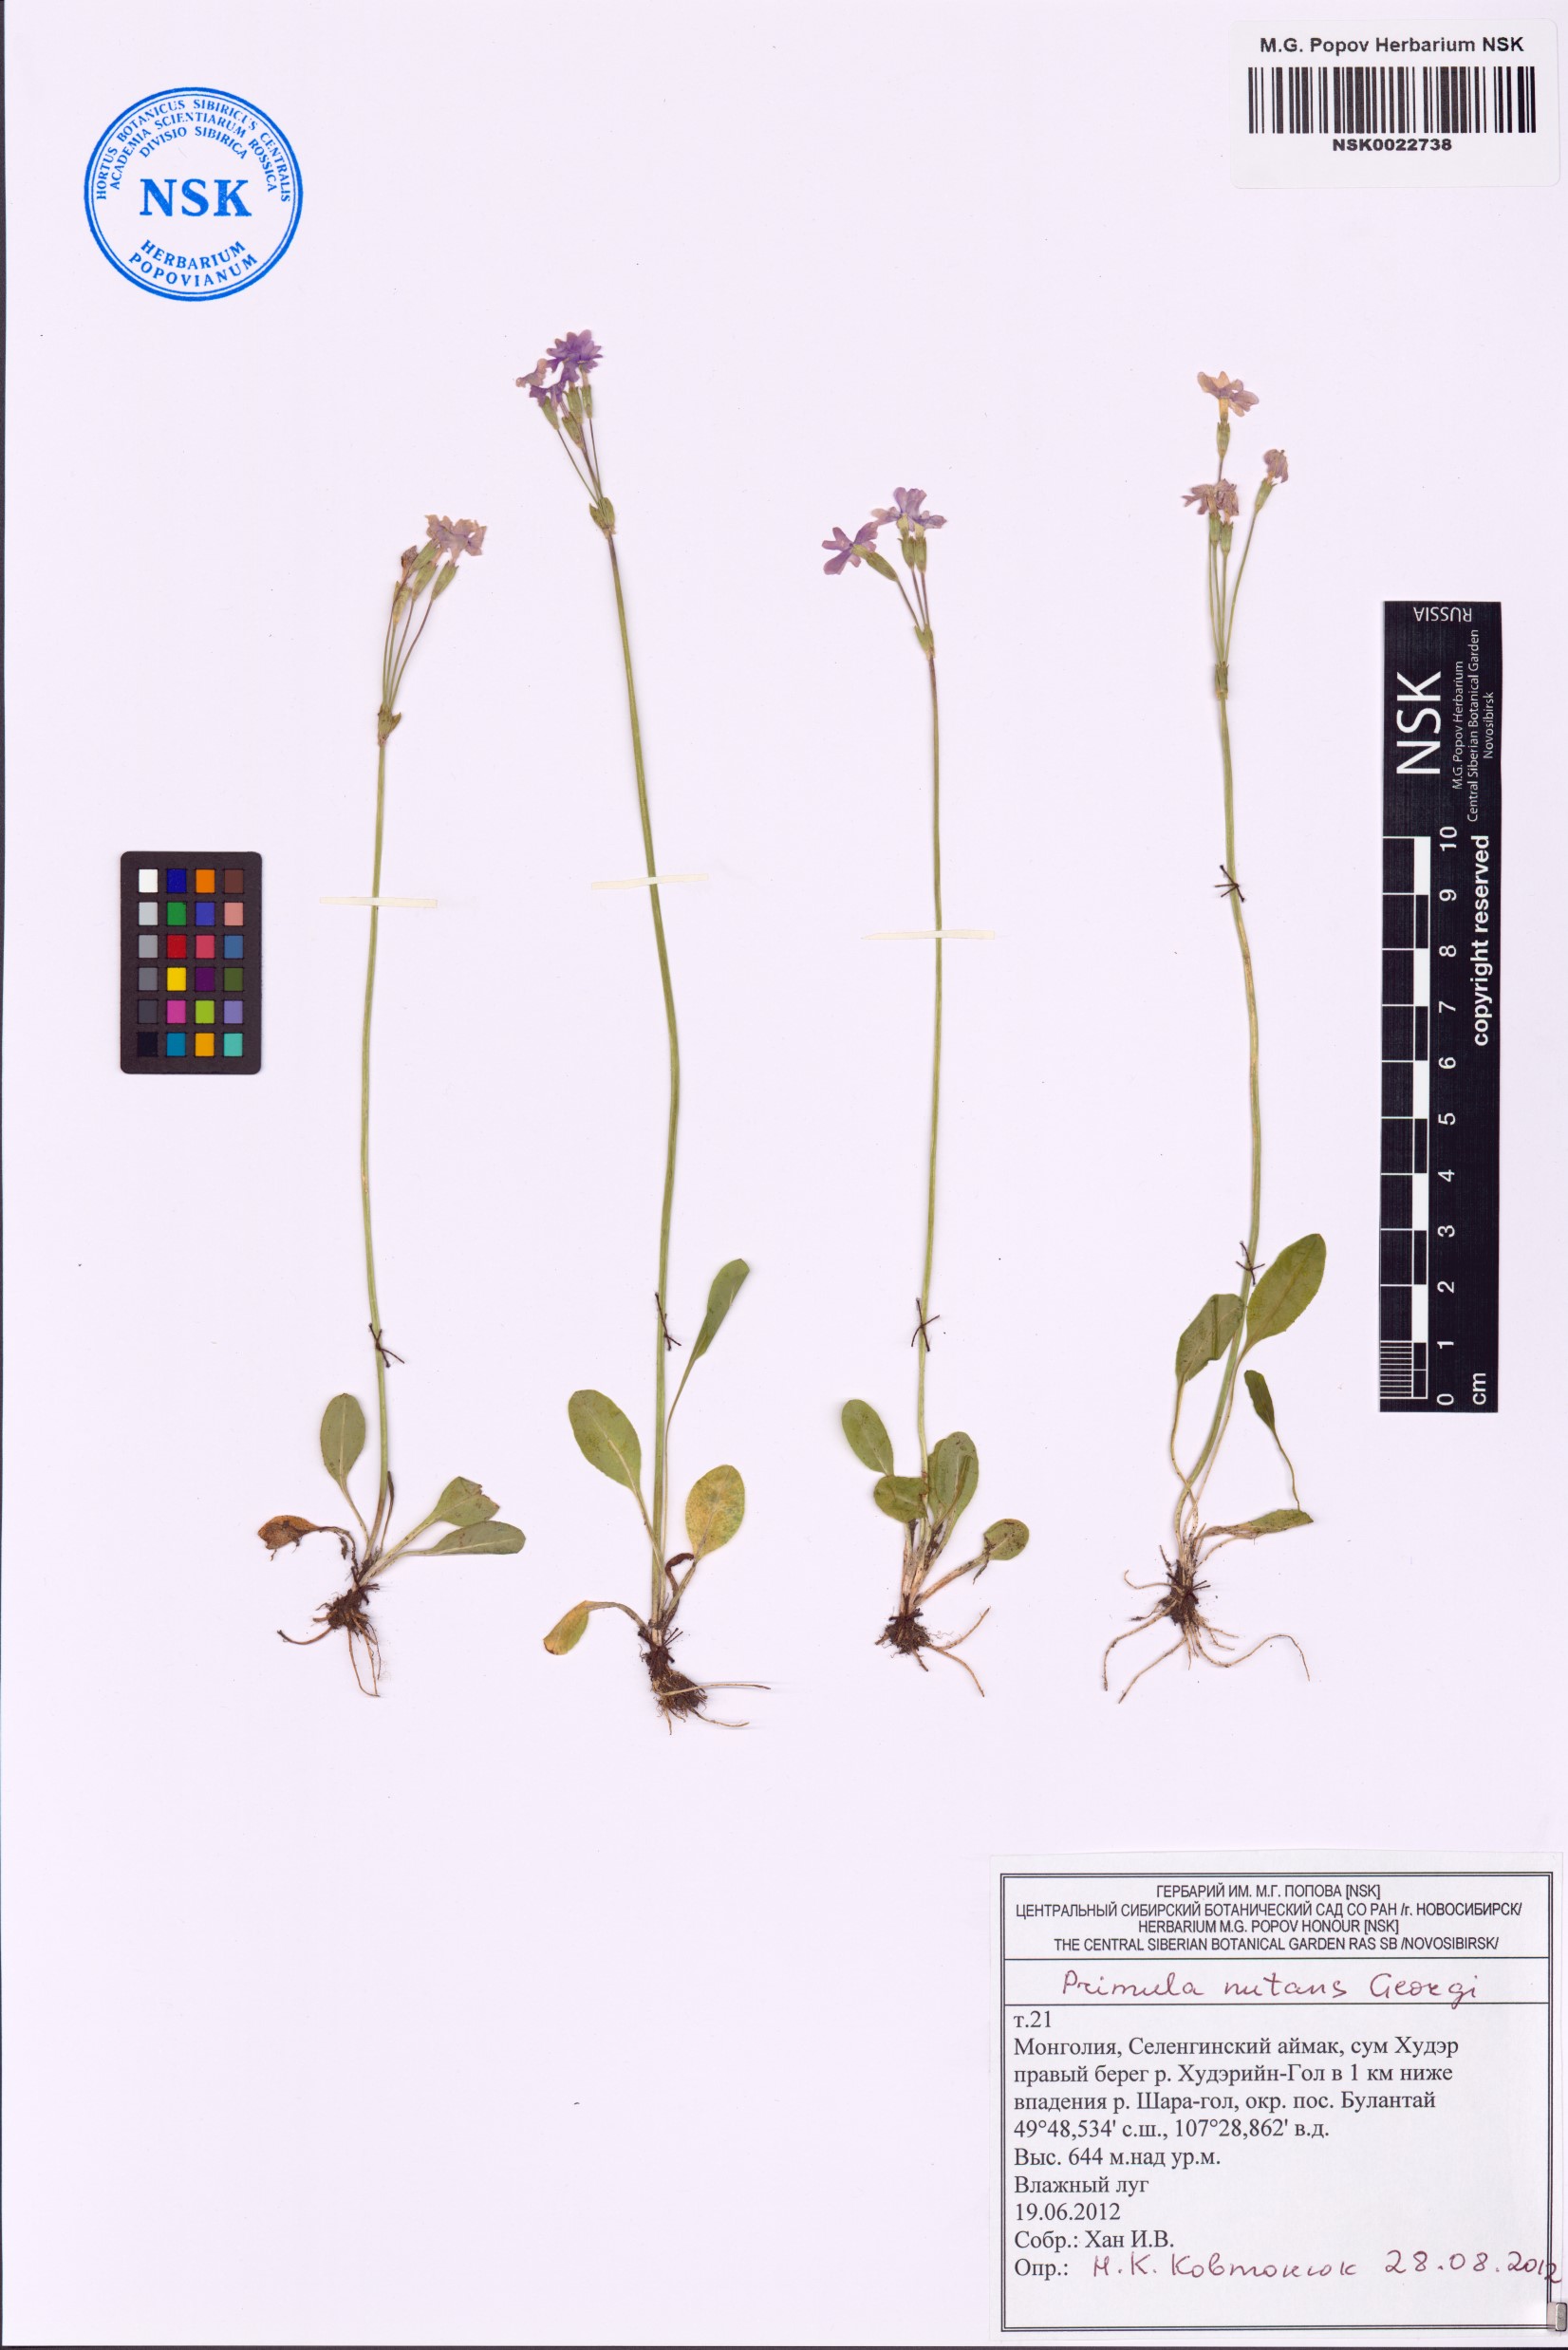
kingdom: Plantae
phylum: Tracheophyta
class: Magnoliopsida
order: Ericales
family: Primulaceae
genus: Primula
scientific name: Primula nutans
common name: Siberian primrose
